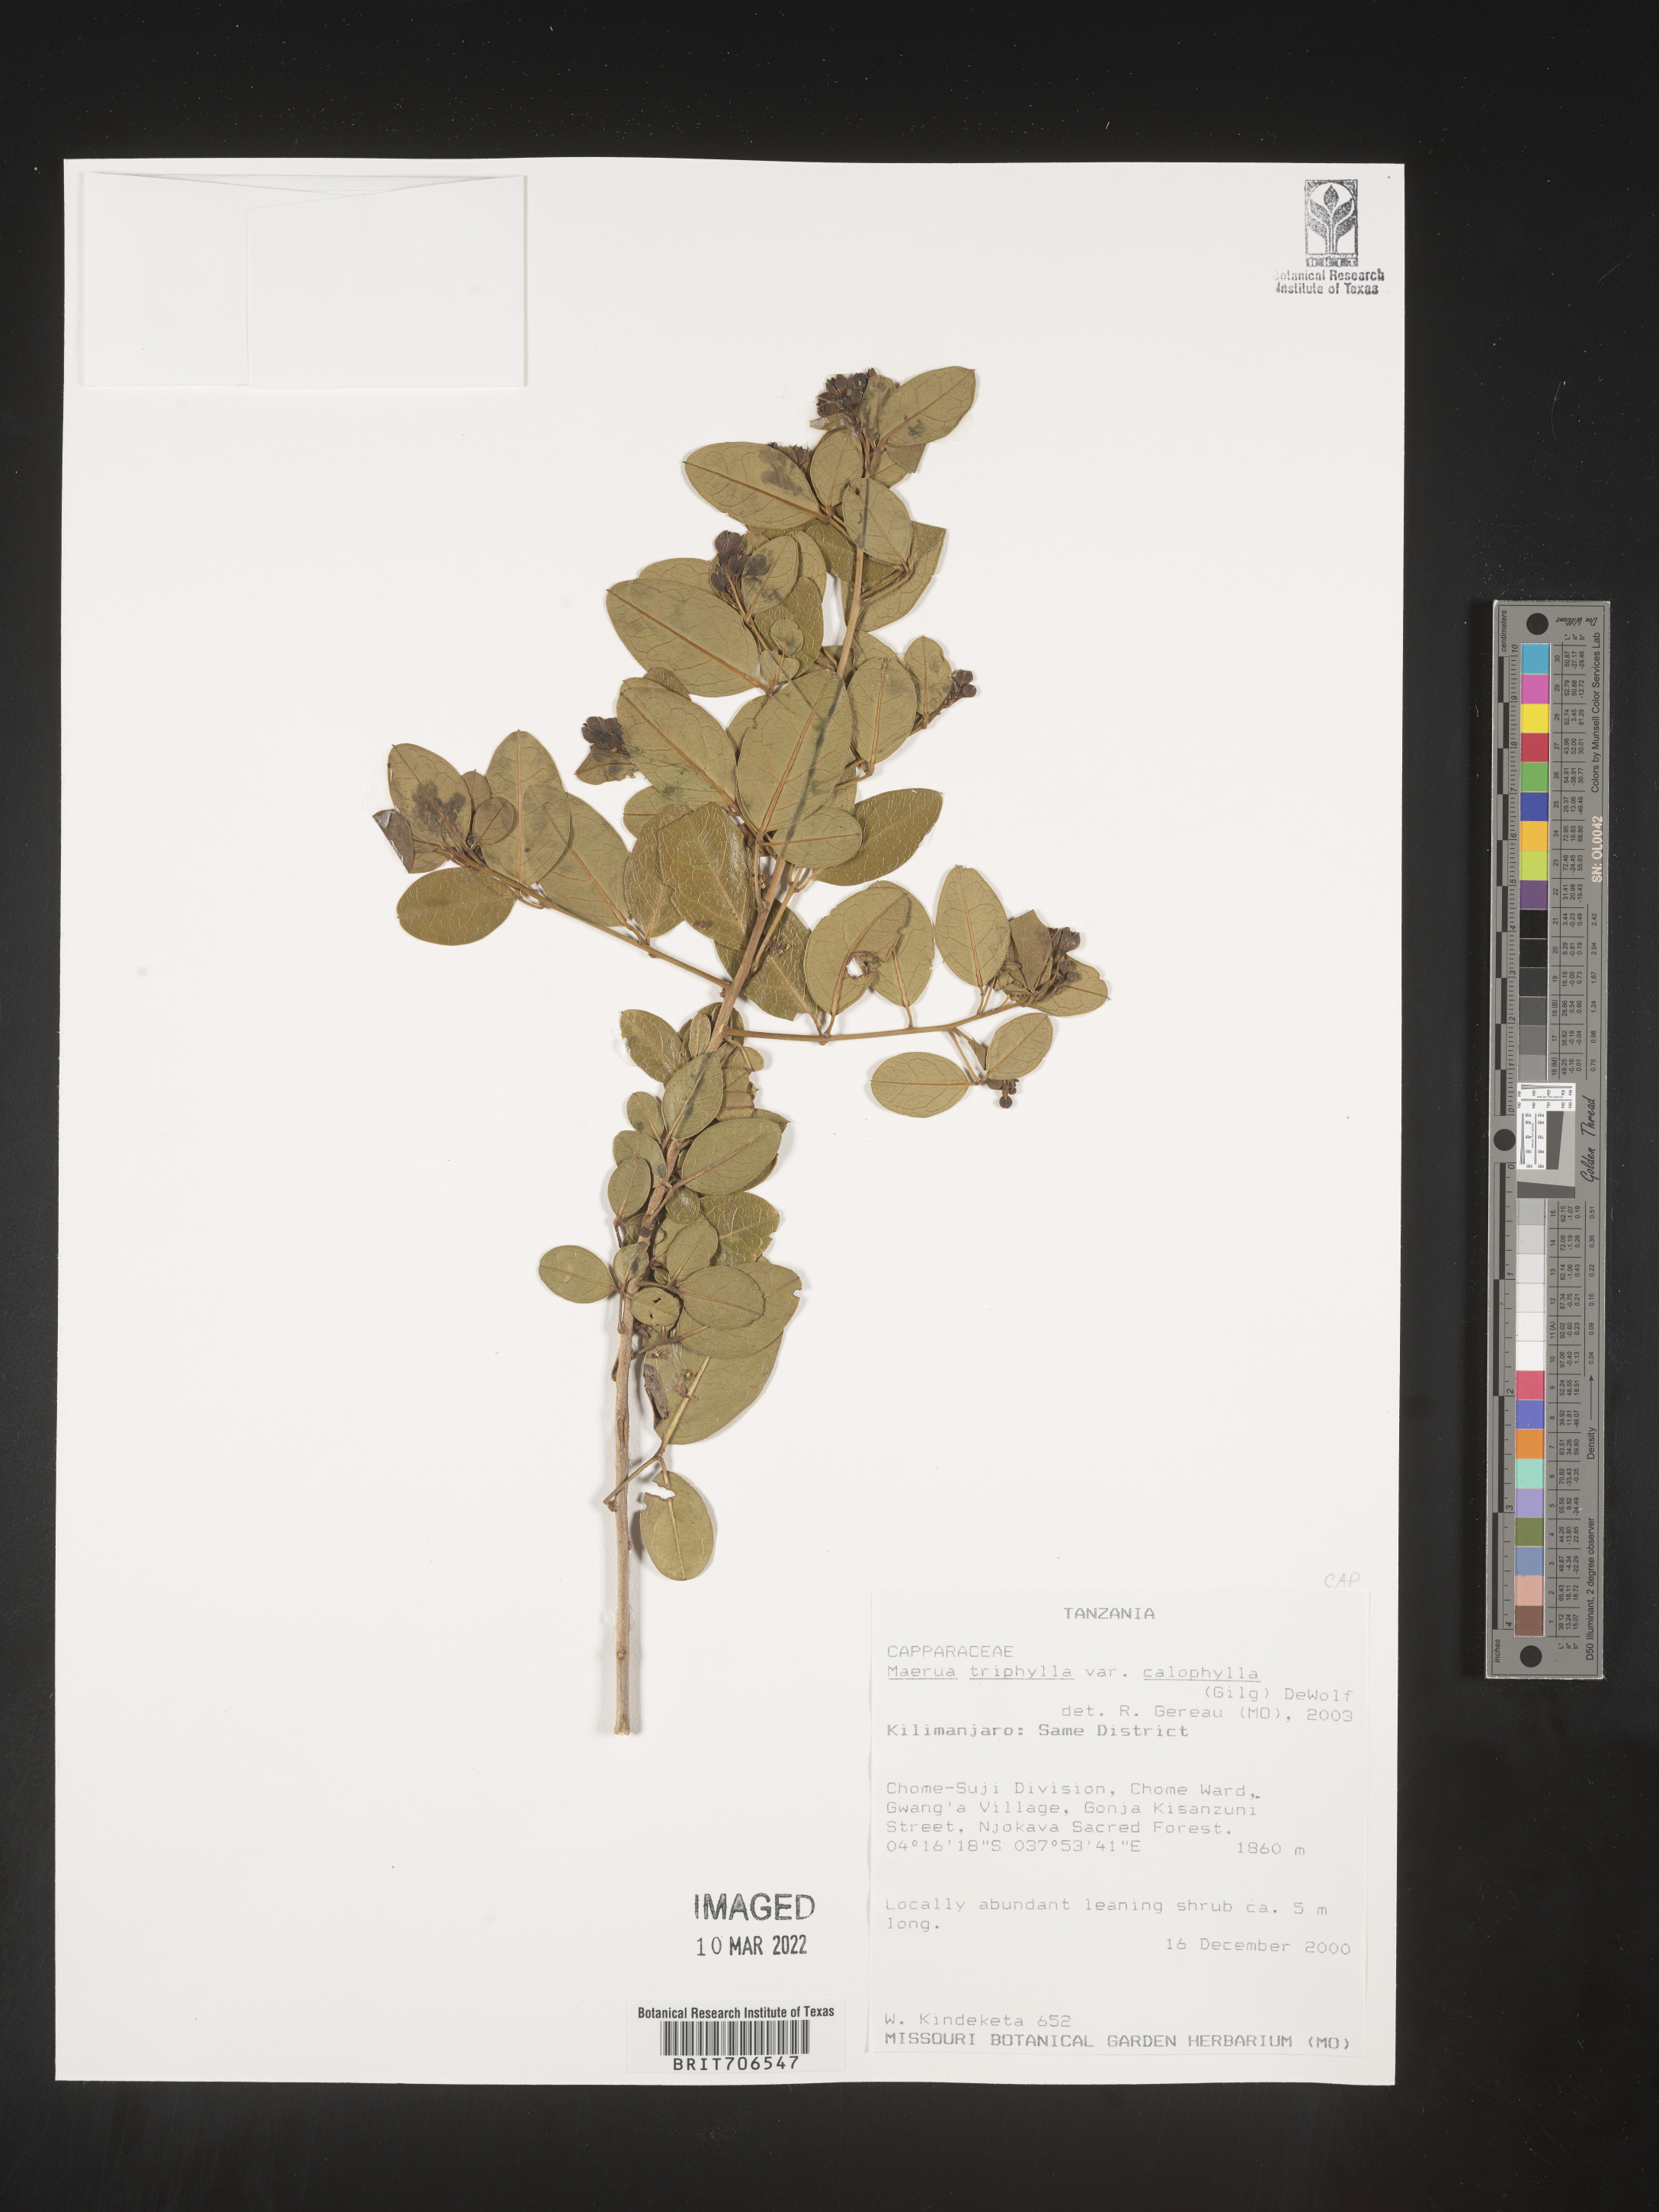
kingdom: Plantae
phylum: Tracheophyta
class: Magnoliopsida
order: Brassicales
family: Capparaceae
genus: Maerua
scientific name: Maerua
